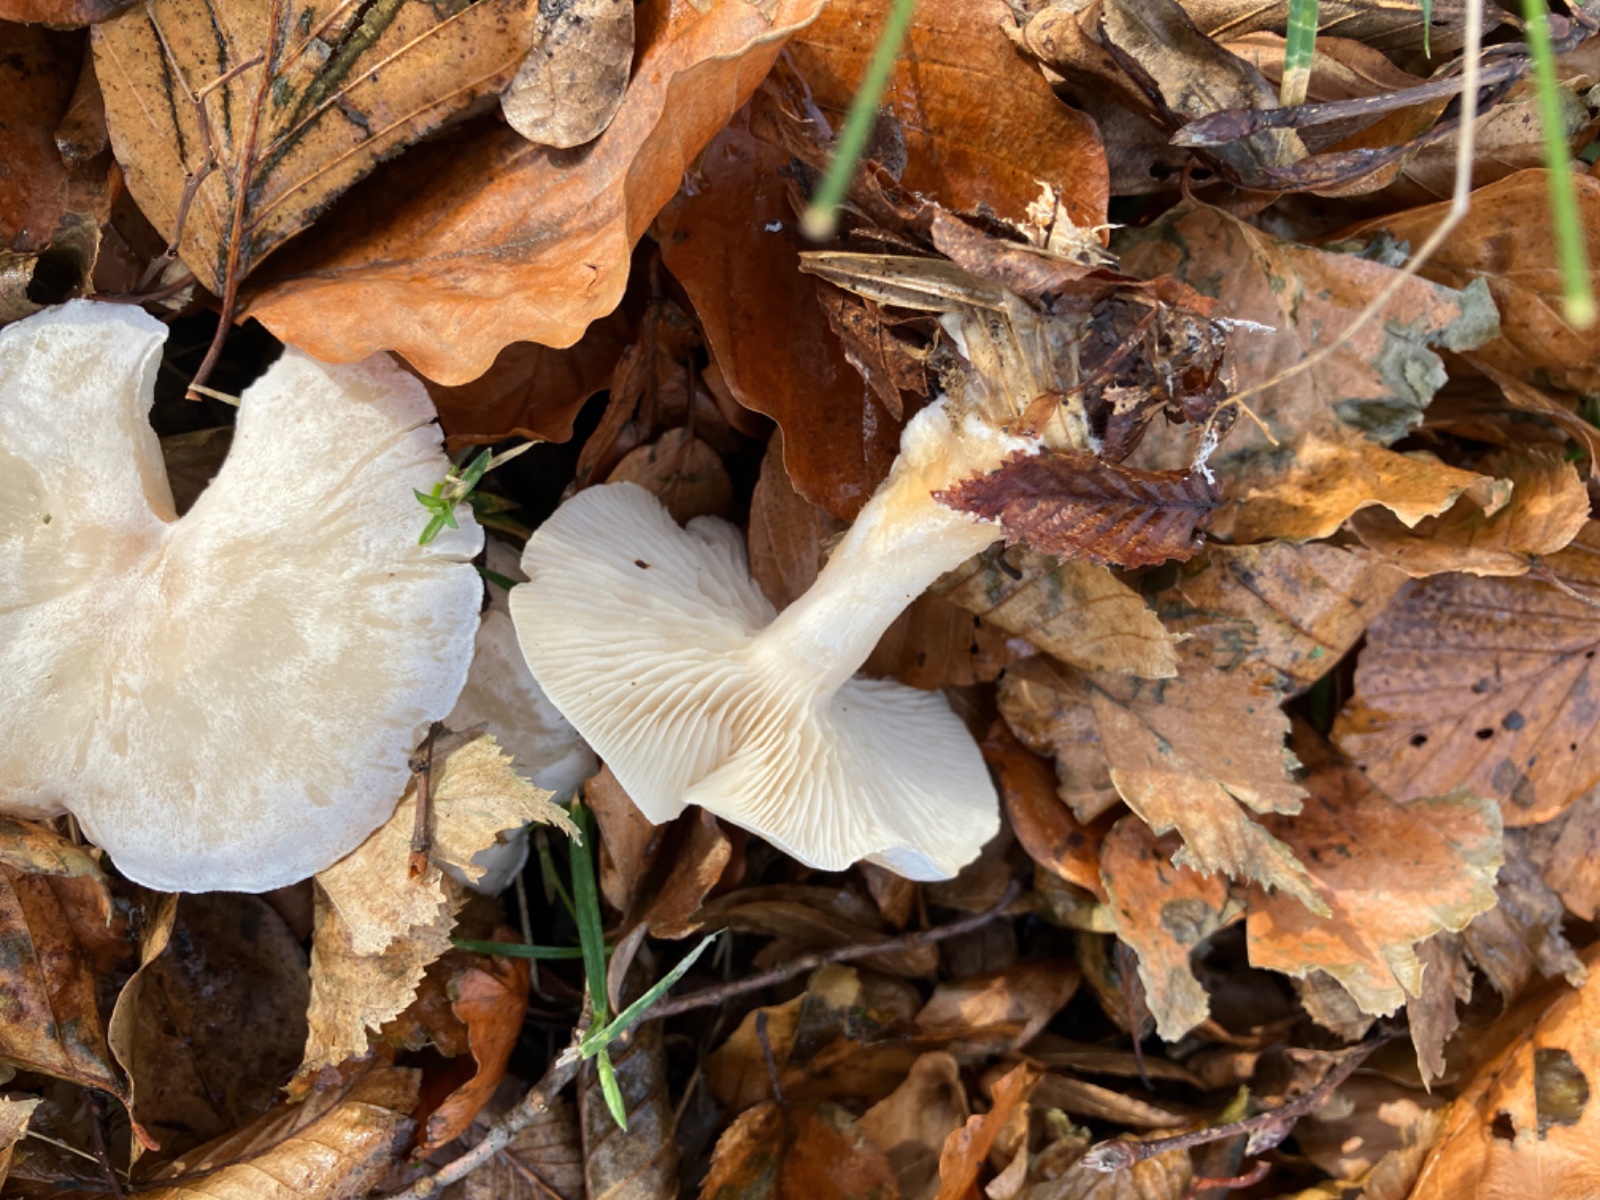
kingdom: Fungi
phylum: Basidiomycota
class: Agaricomycetes
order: Agaricales
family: Tricholomataceae
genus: Clitocybe
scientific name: Clitocybe
